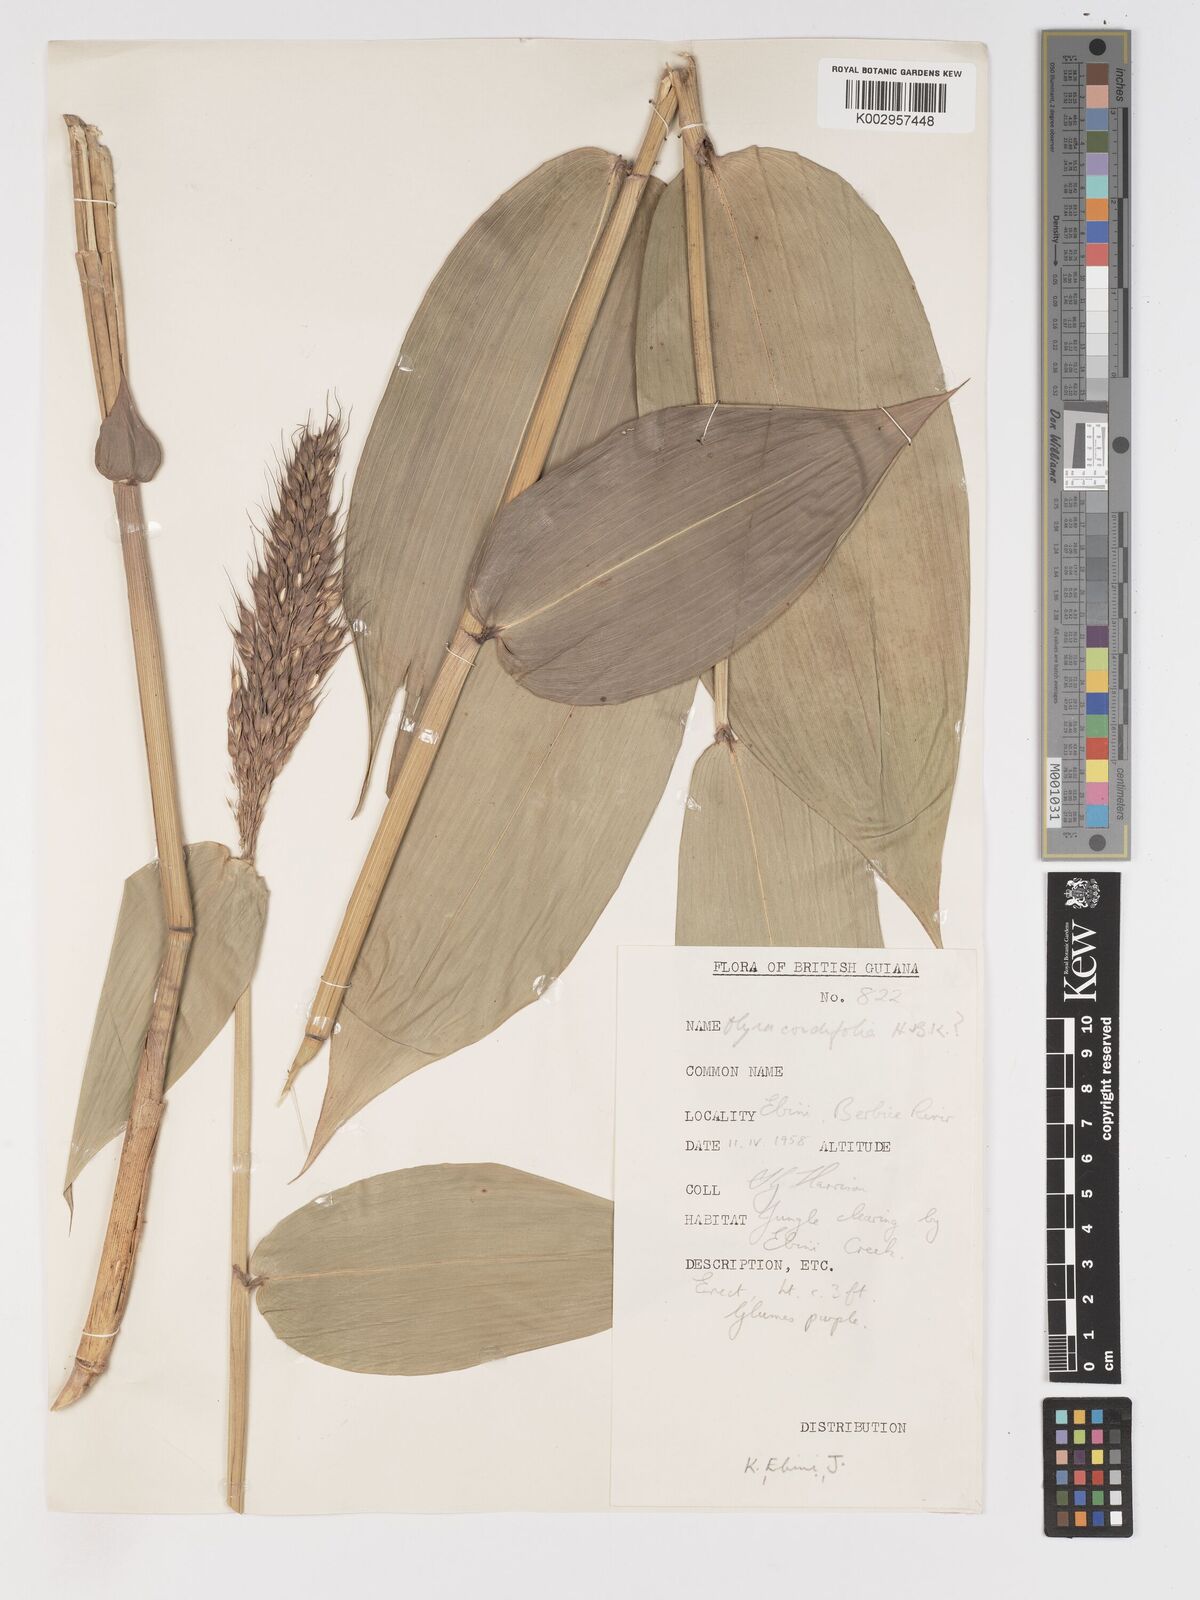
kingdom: Plantae
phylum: Tracheophyta
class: Liliopsida
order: Poales
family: Poaceae
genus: Olyra
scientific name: Olyra latifolia
